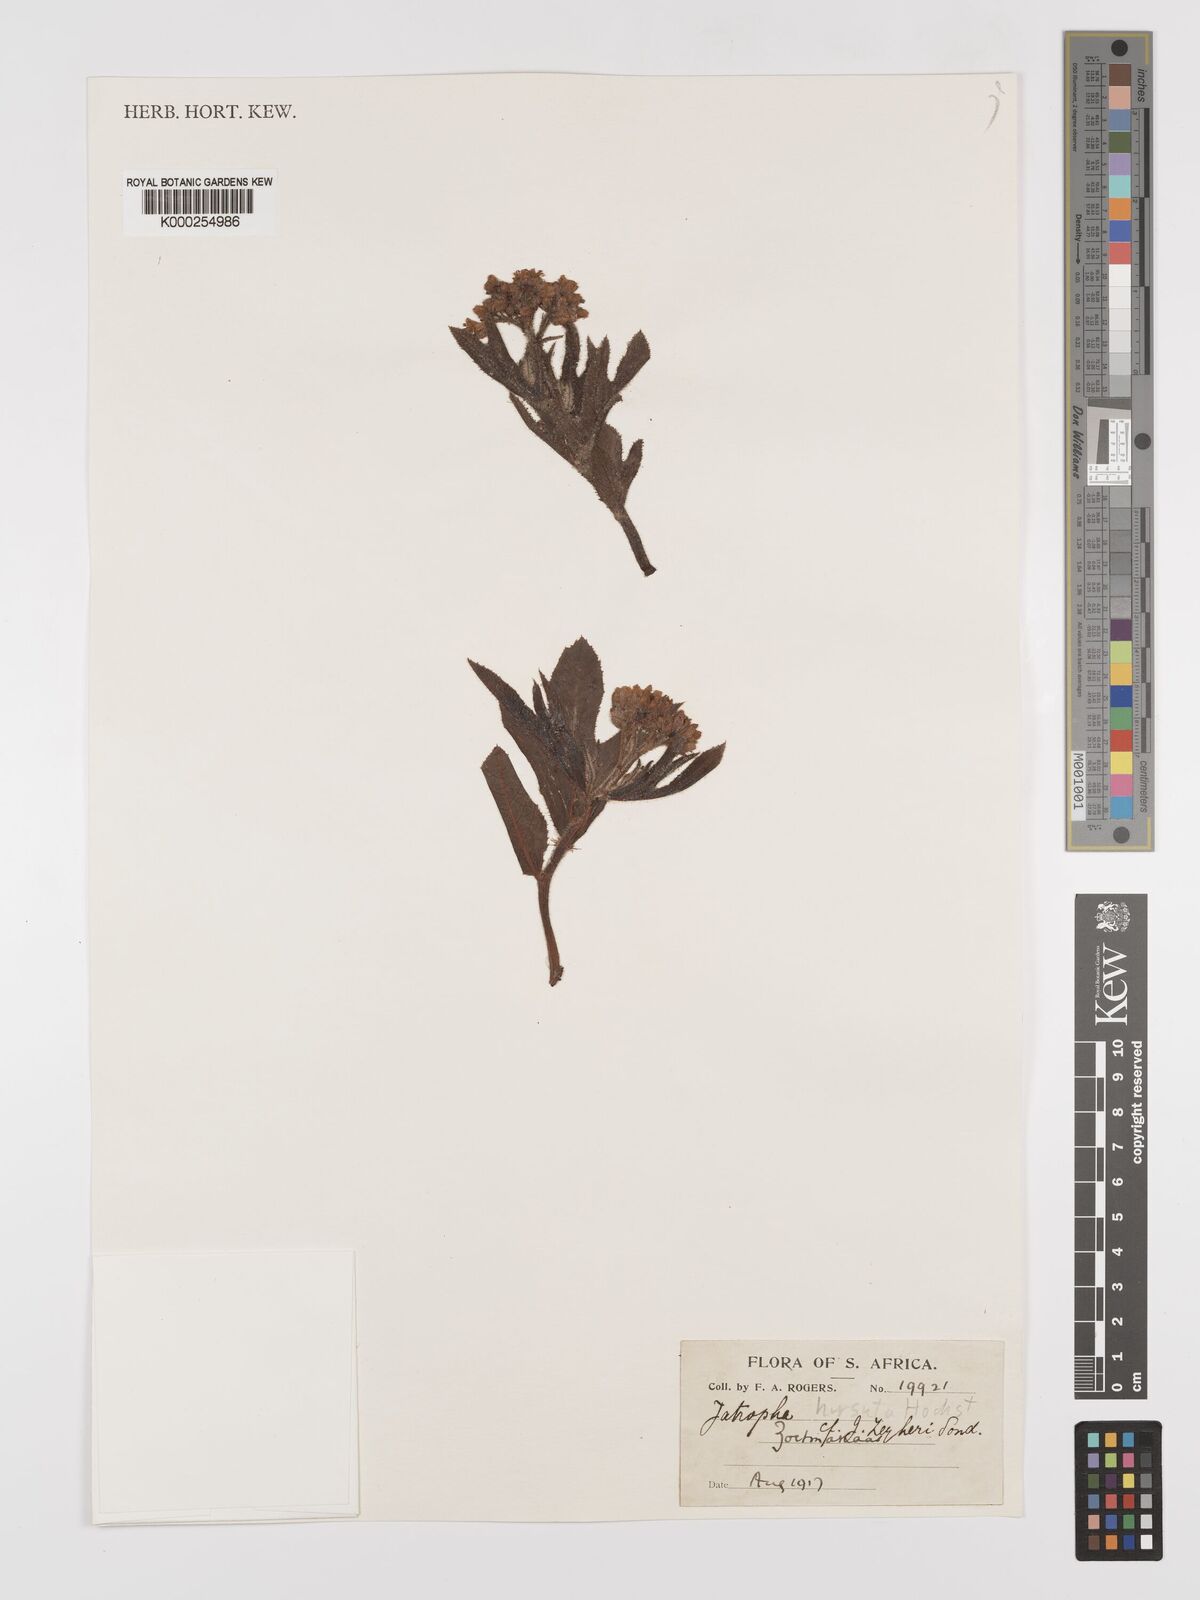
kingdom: Plantae
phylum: Tracheophyta
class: Magnoliopsida
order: Malpighiales
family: Euphorbiaceae
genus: Jatropha
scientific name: Jatropha hirsuta
